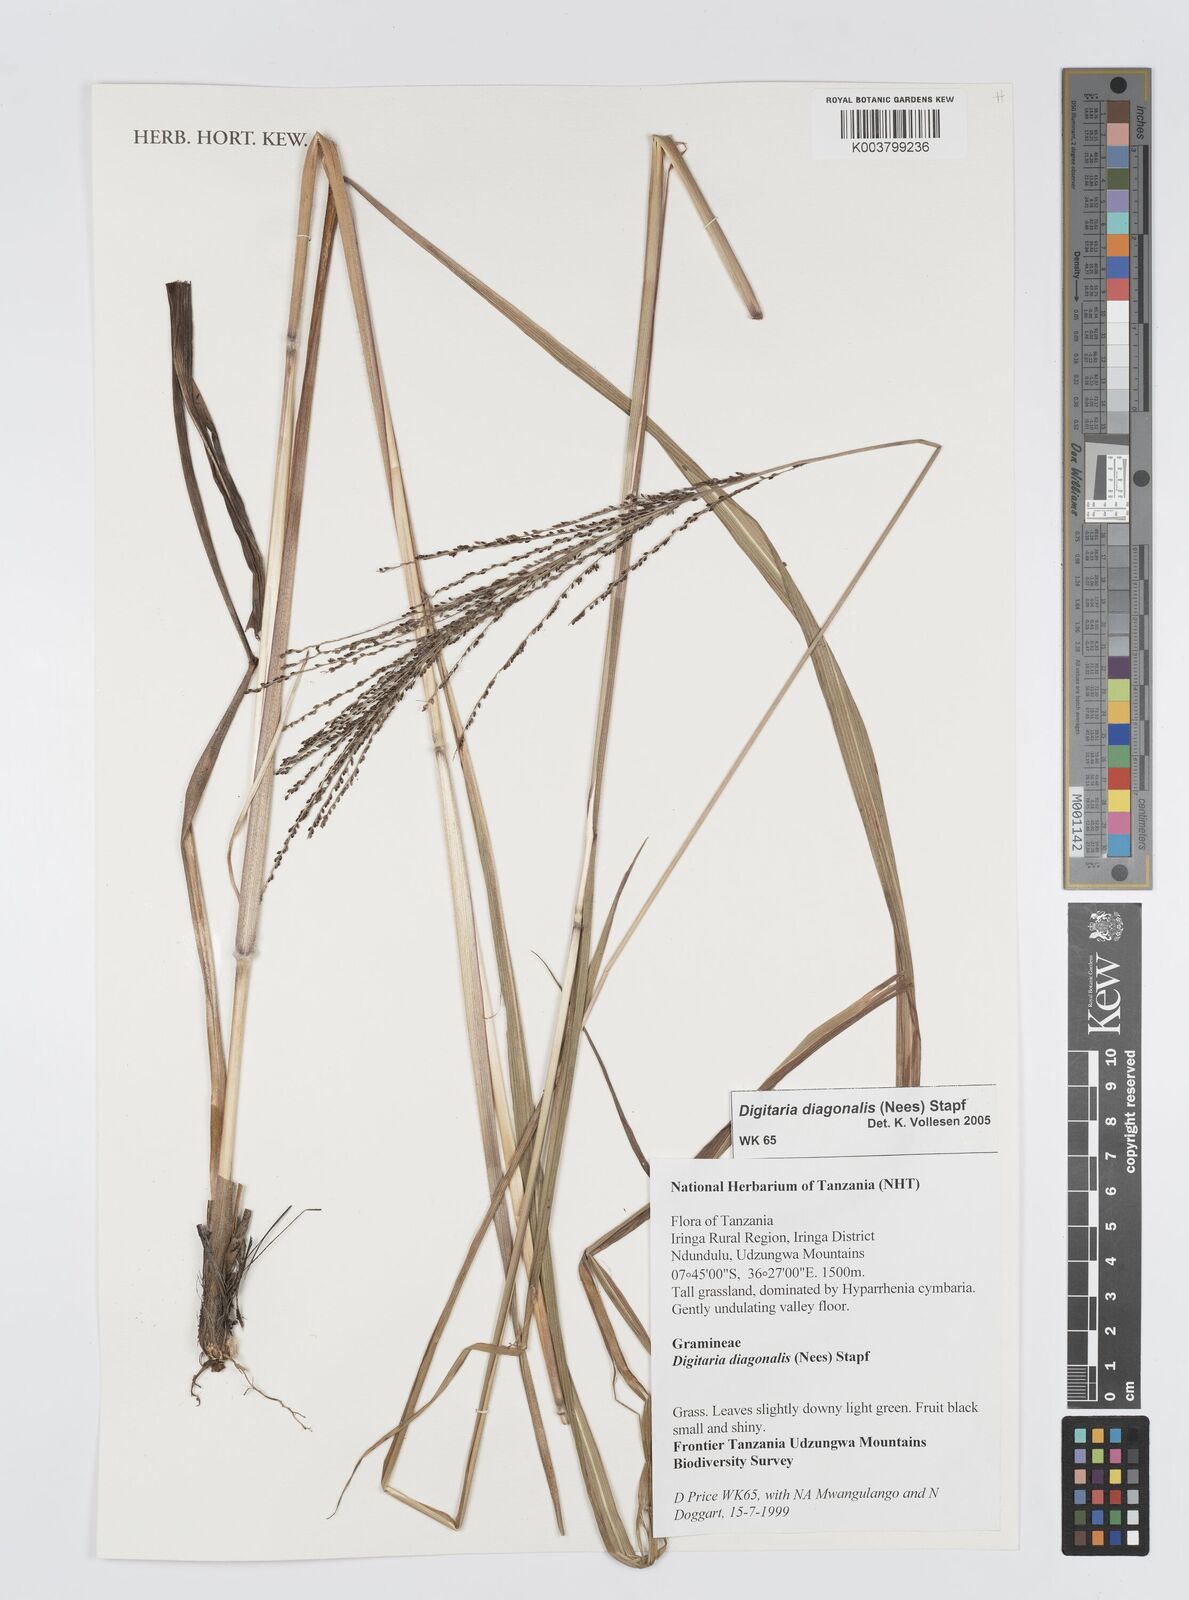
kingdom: Plantae
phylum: Tracheophyta
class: Liliopsida
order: Poales
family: Poaceae
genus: Digitaria
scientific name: Digitaria diagonalis
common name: Brown-seed finger grass
